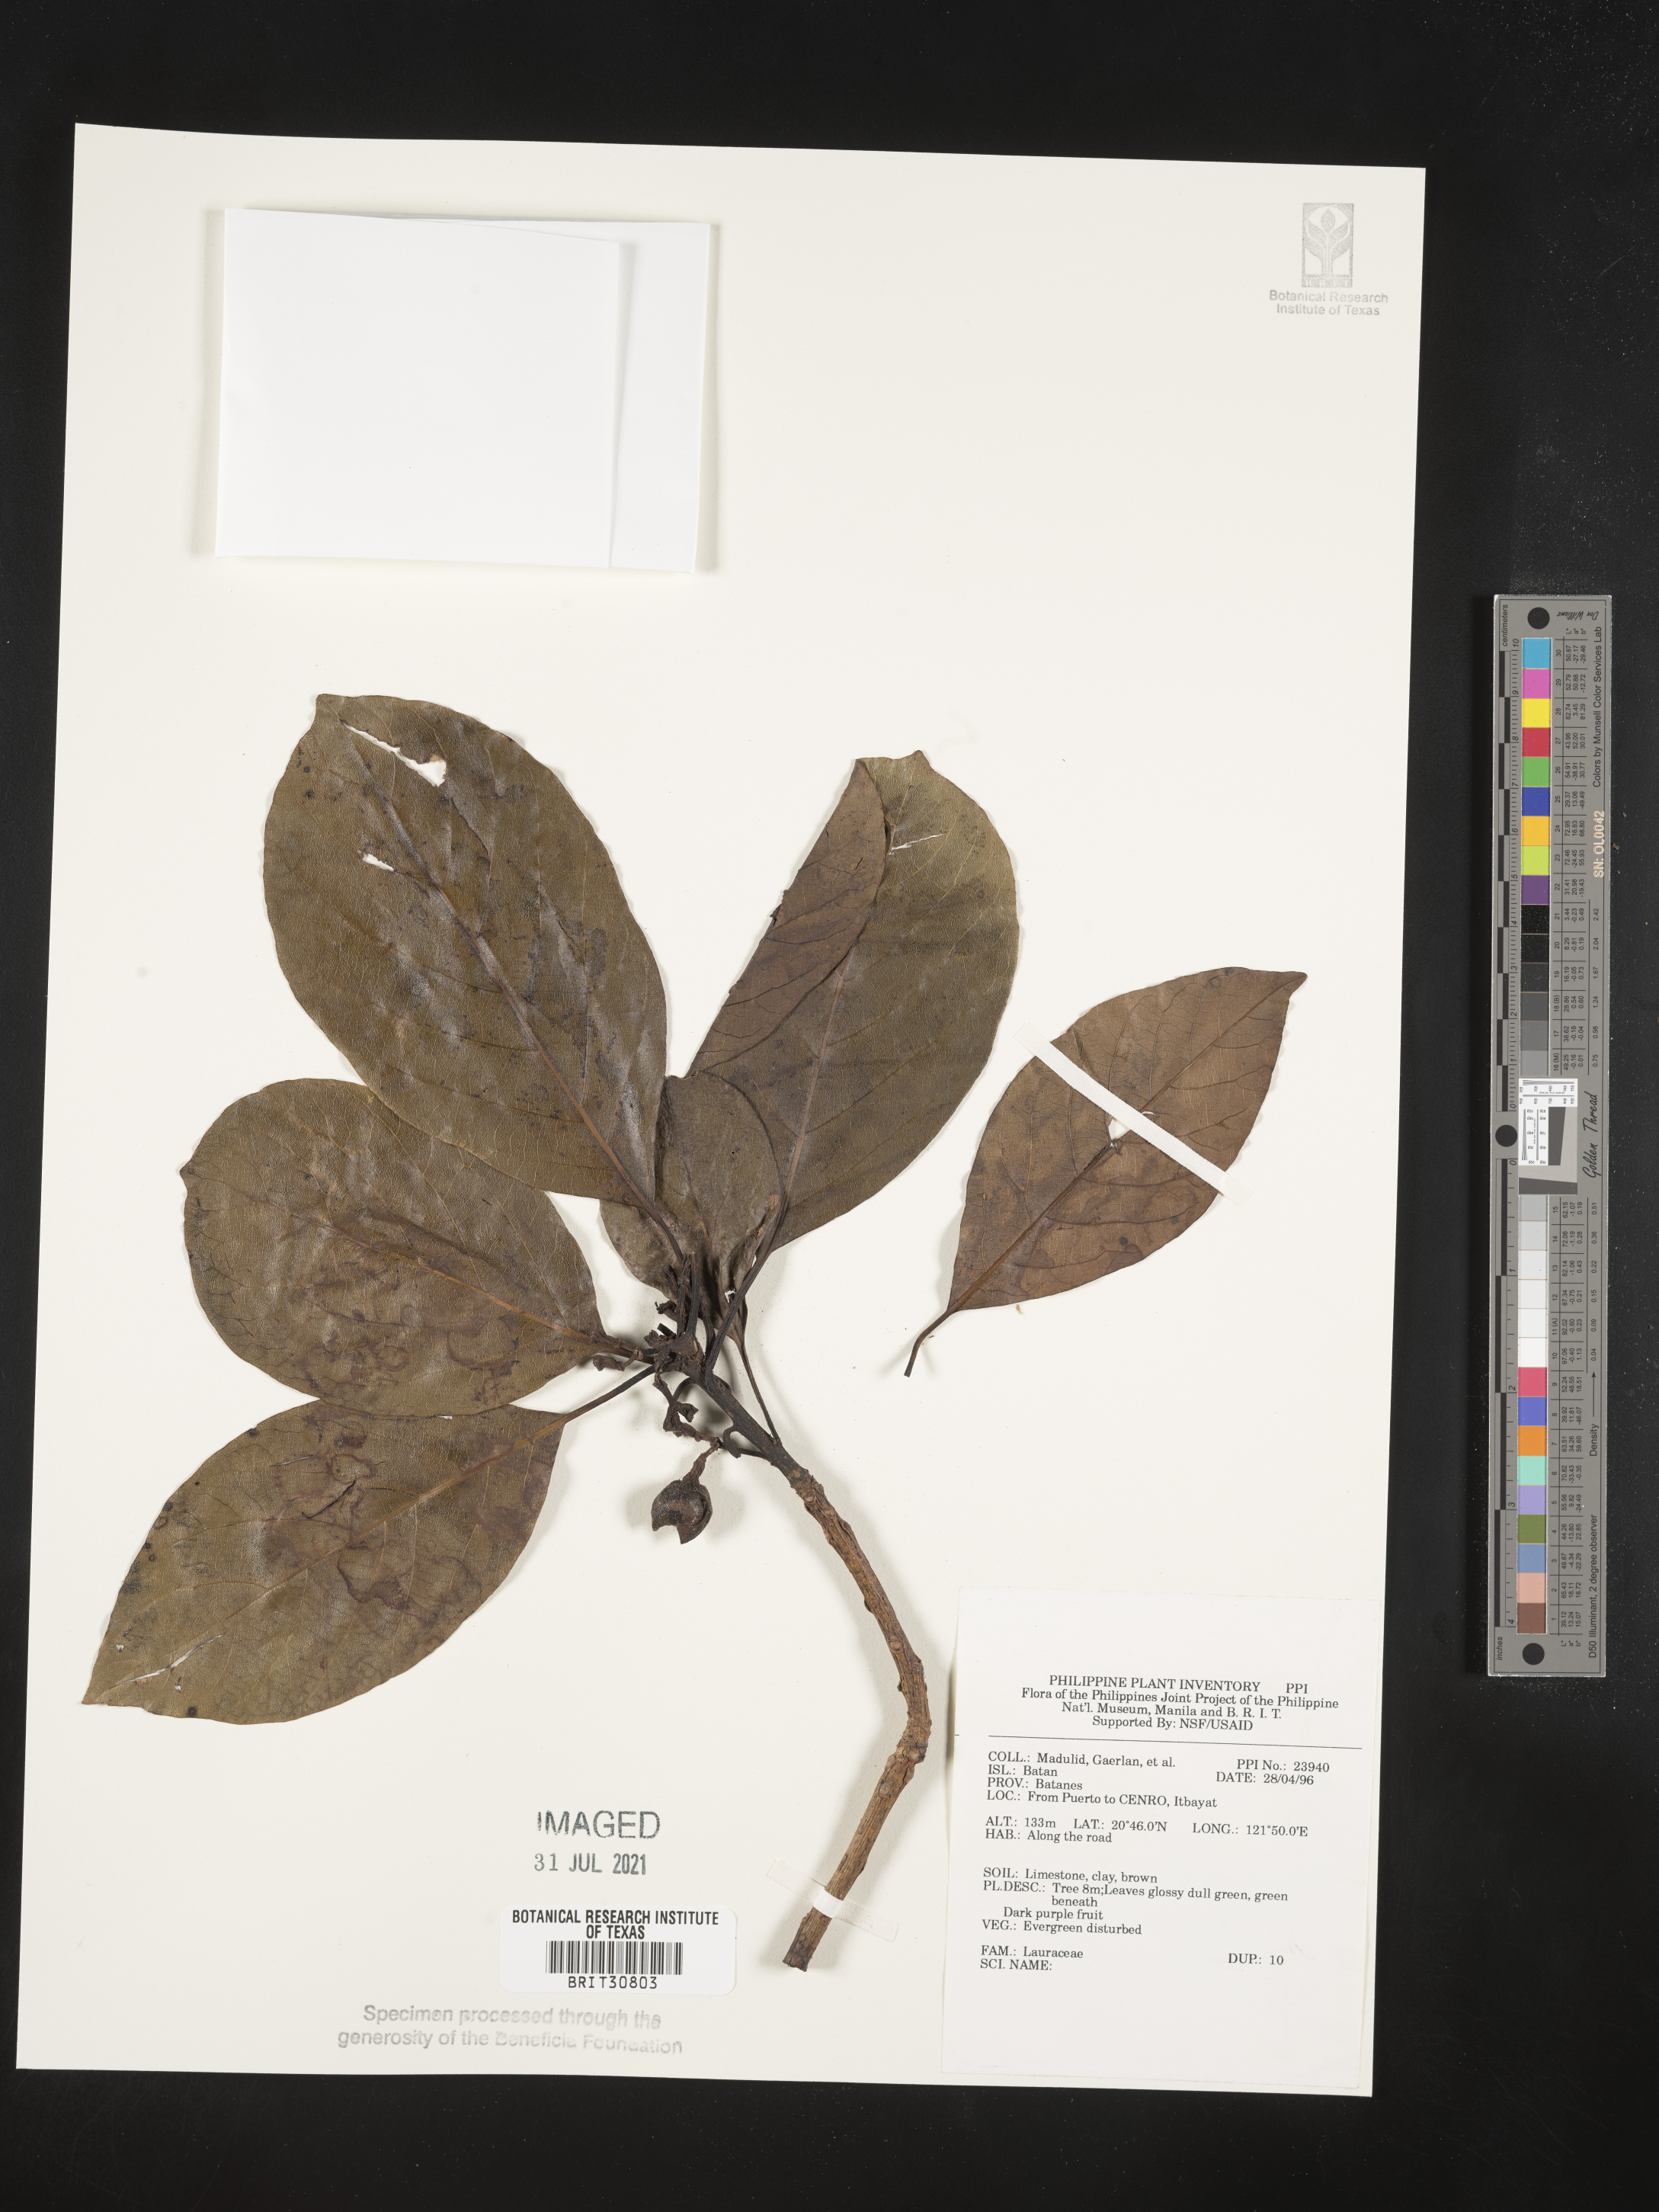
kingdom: Plantae
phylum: Tracheophyta
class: Magnoliopsida
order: Laurales
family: Lauraceae
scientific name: Lauraceae
